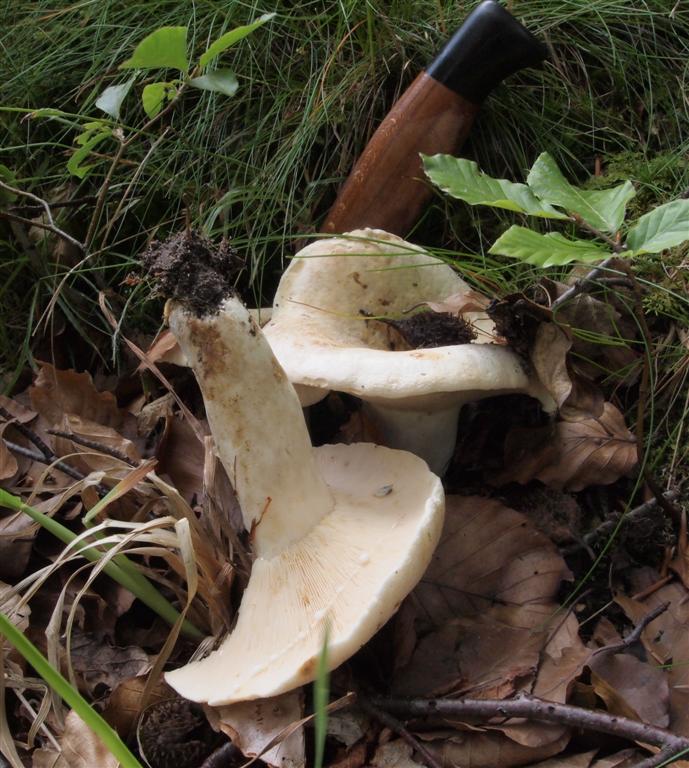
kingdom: Fungi
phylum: Basidiomycota
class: Agaricomycetes
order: Russulales
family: Russulaceae
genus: Lactifluus
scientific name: Lactifluus piperatus
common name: peber-mælkehat
